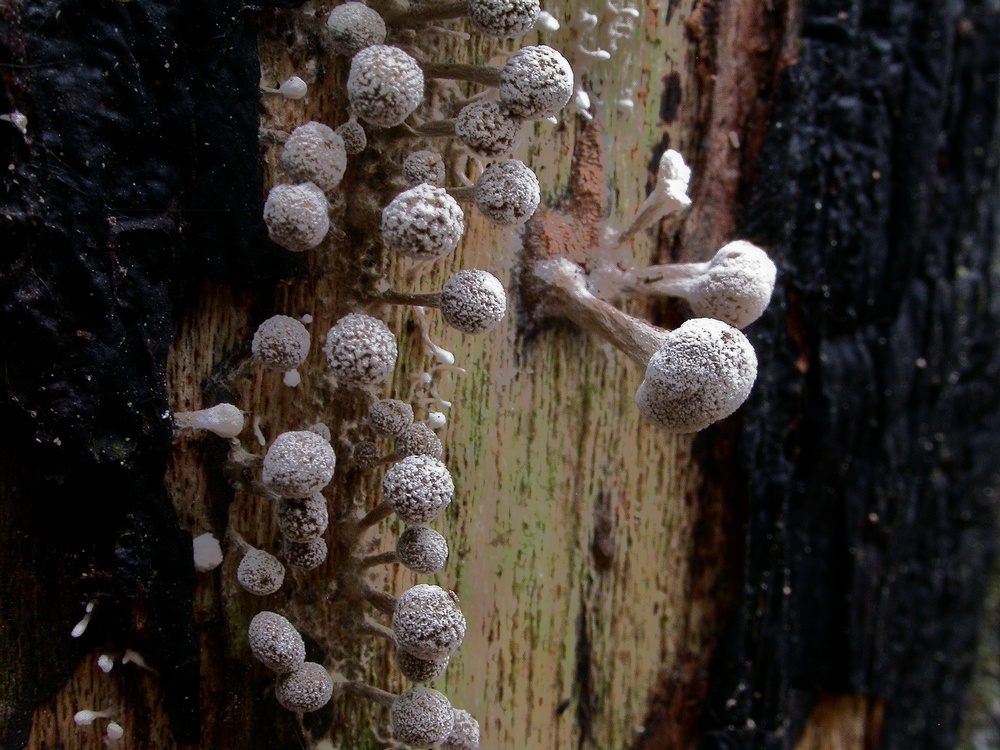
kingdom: Fungi
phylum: Basidiomycota
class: Atractiellomycetes
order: Atractiellales
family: Phleogenaceae
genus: Phleogena
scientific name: Phleogena faginea
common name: pudderkølle
